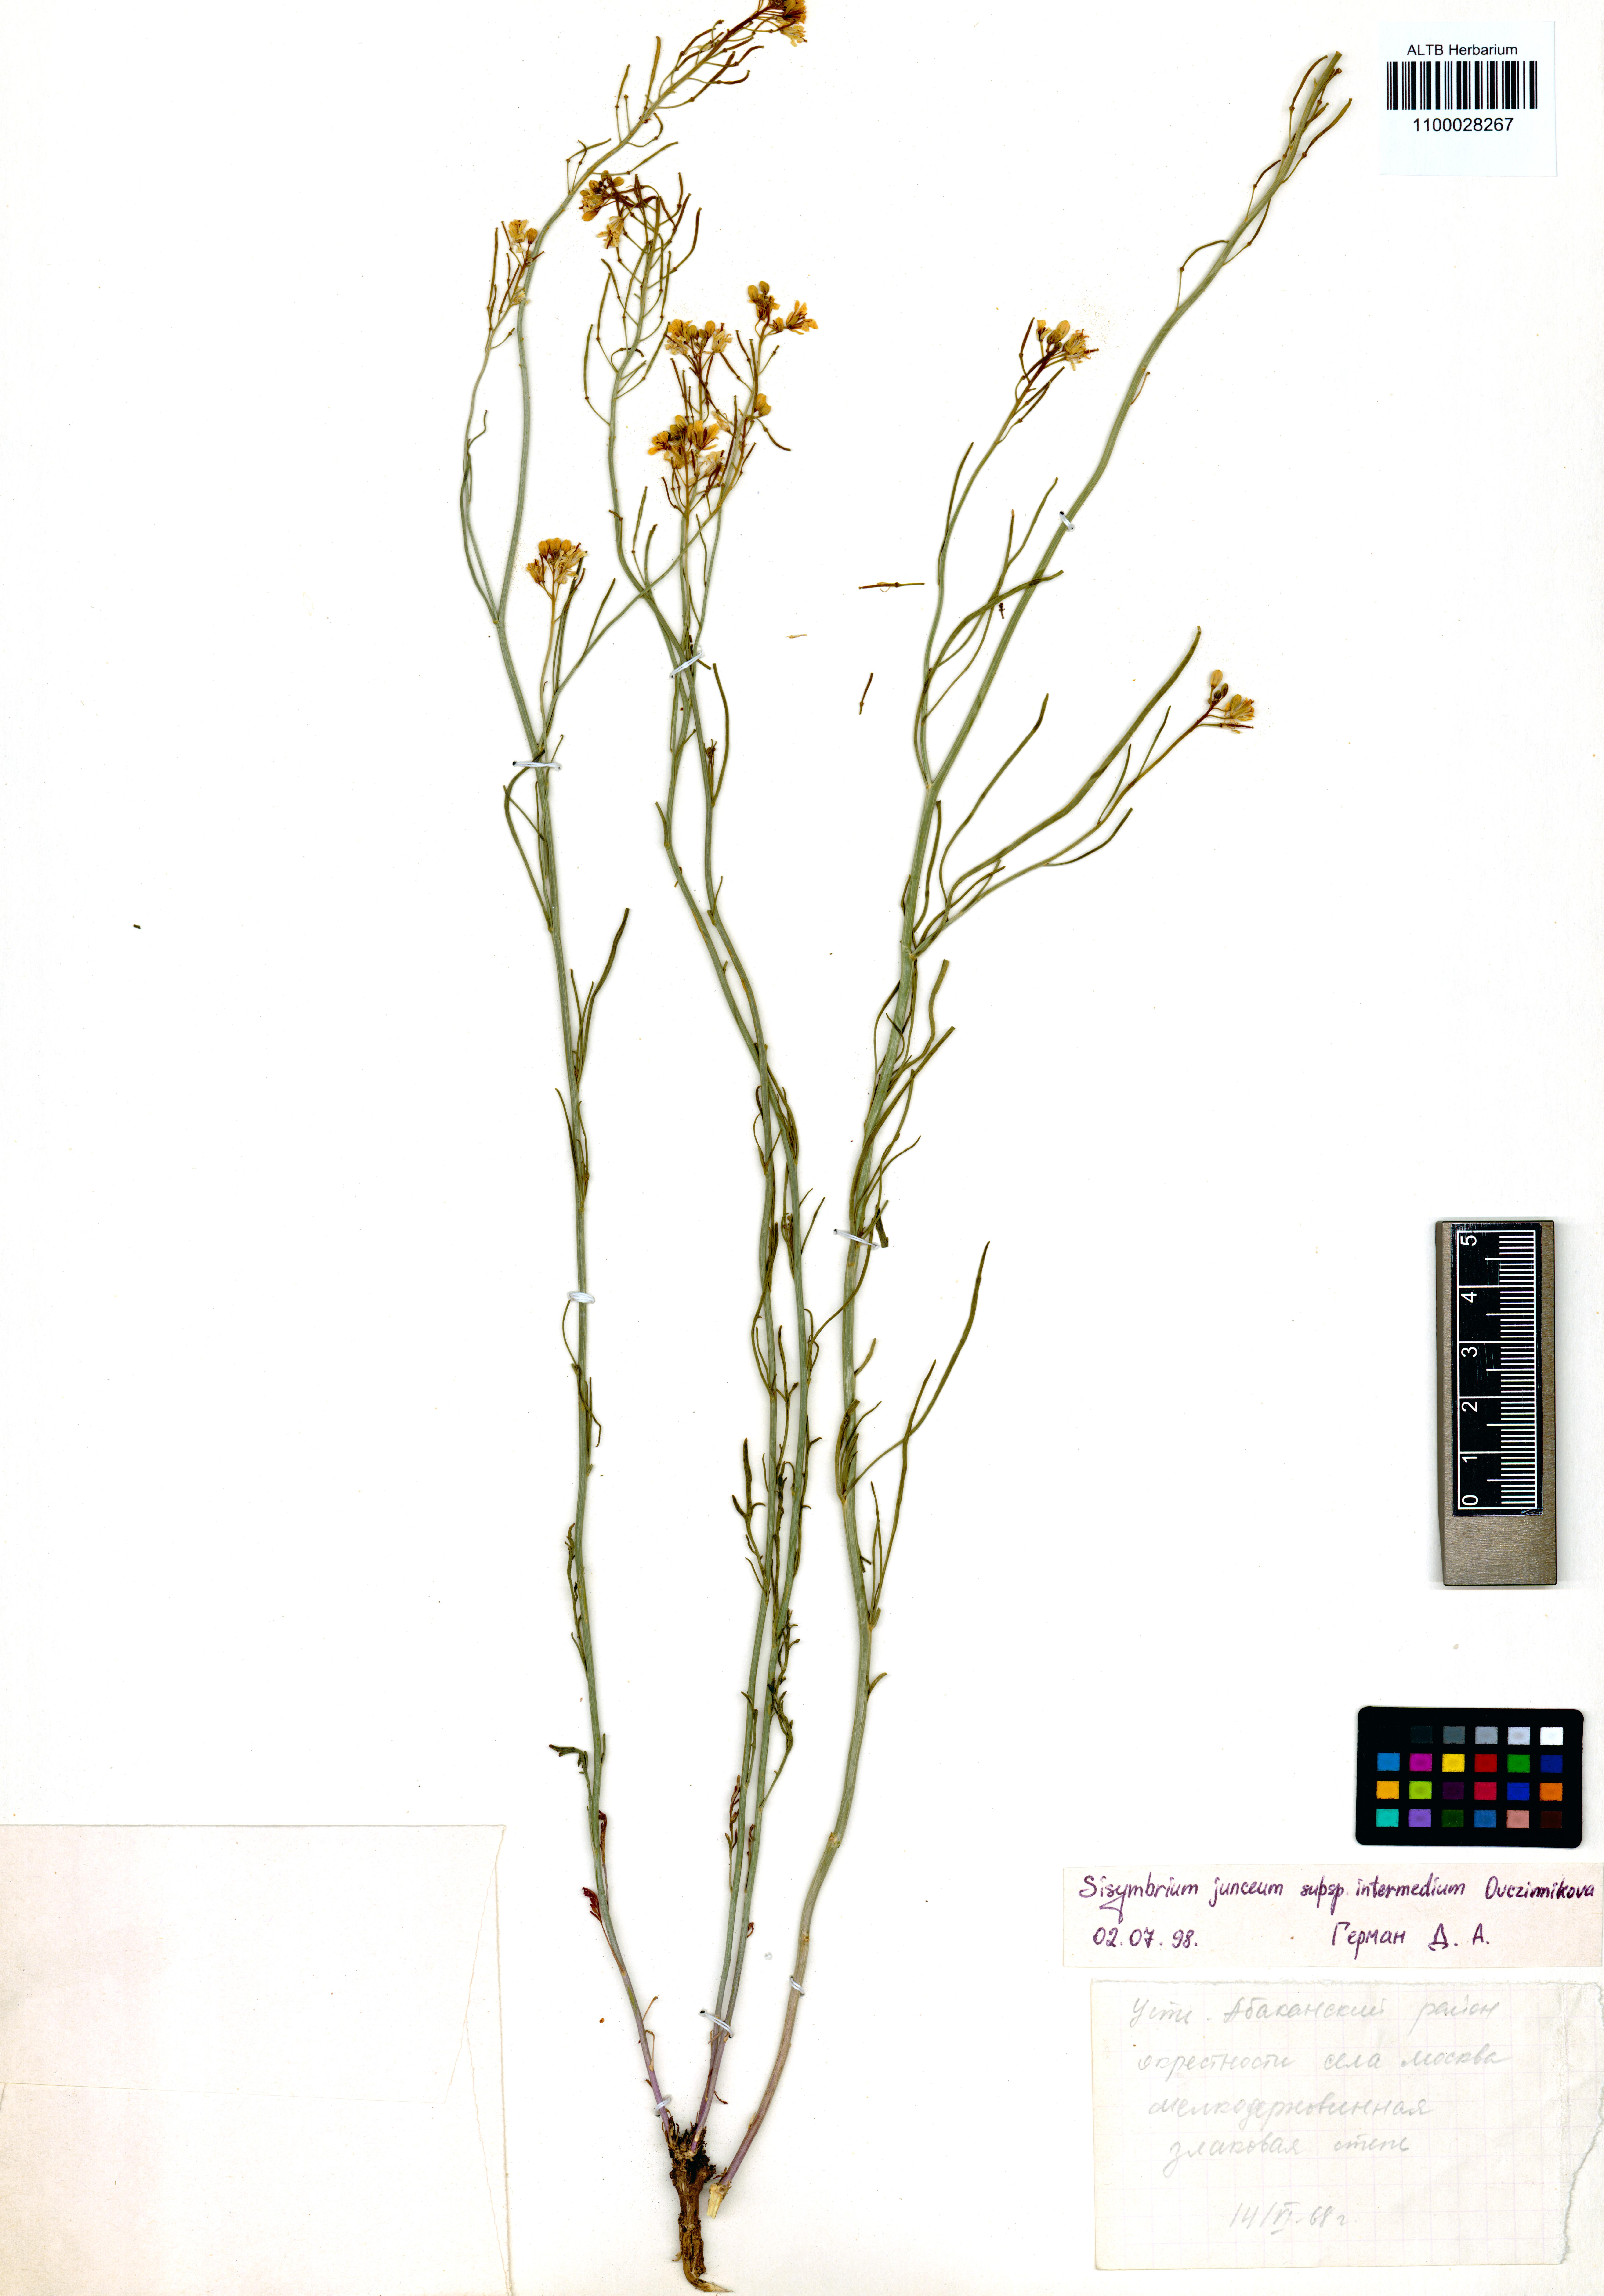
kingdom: Plantae
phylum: Tracheophyta
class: Magnoliopsida
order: Brassicales
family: Brassicaceae
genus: Sisymbrium
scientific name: Sisymbrium polymorphum
